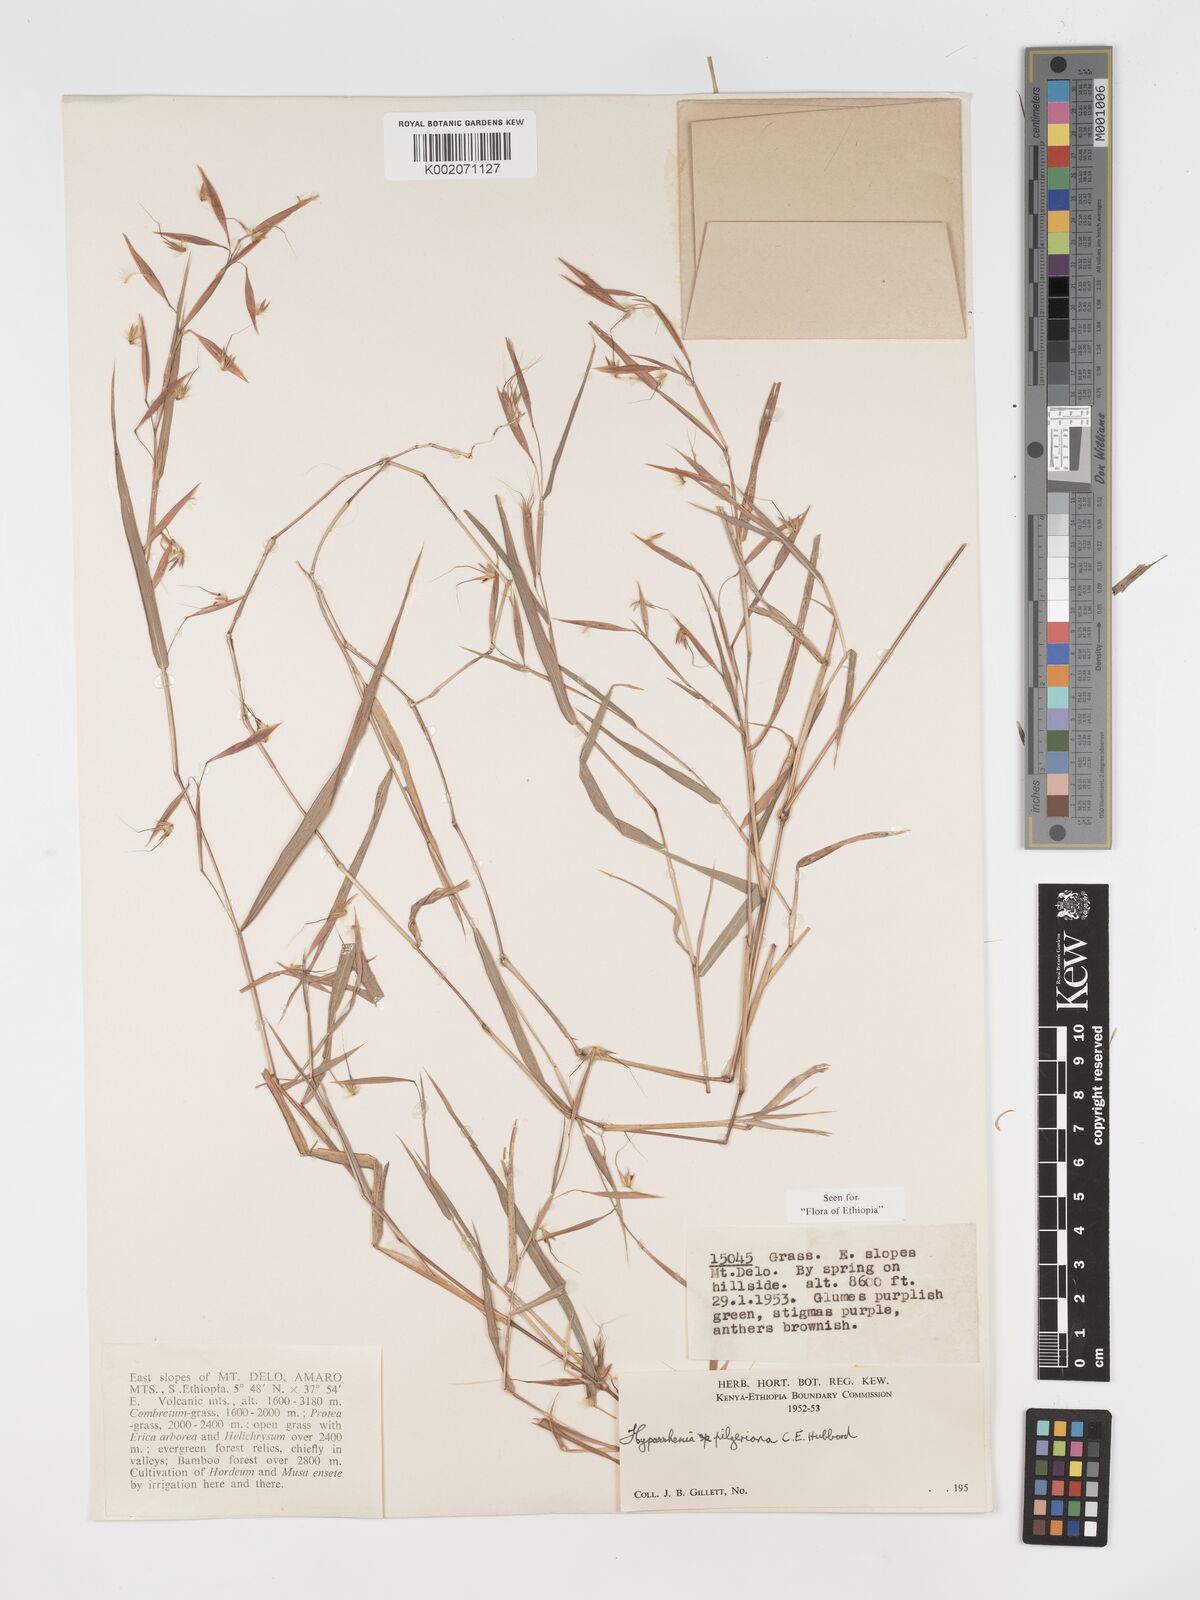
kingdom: Plantae
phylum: Tracheophyta
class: Liliopsida
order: Poales
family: Poaceae
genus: Hyparrhenia
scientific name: Hyparrhenia pilgeriana
